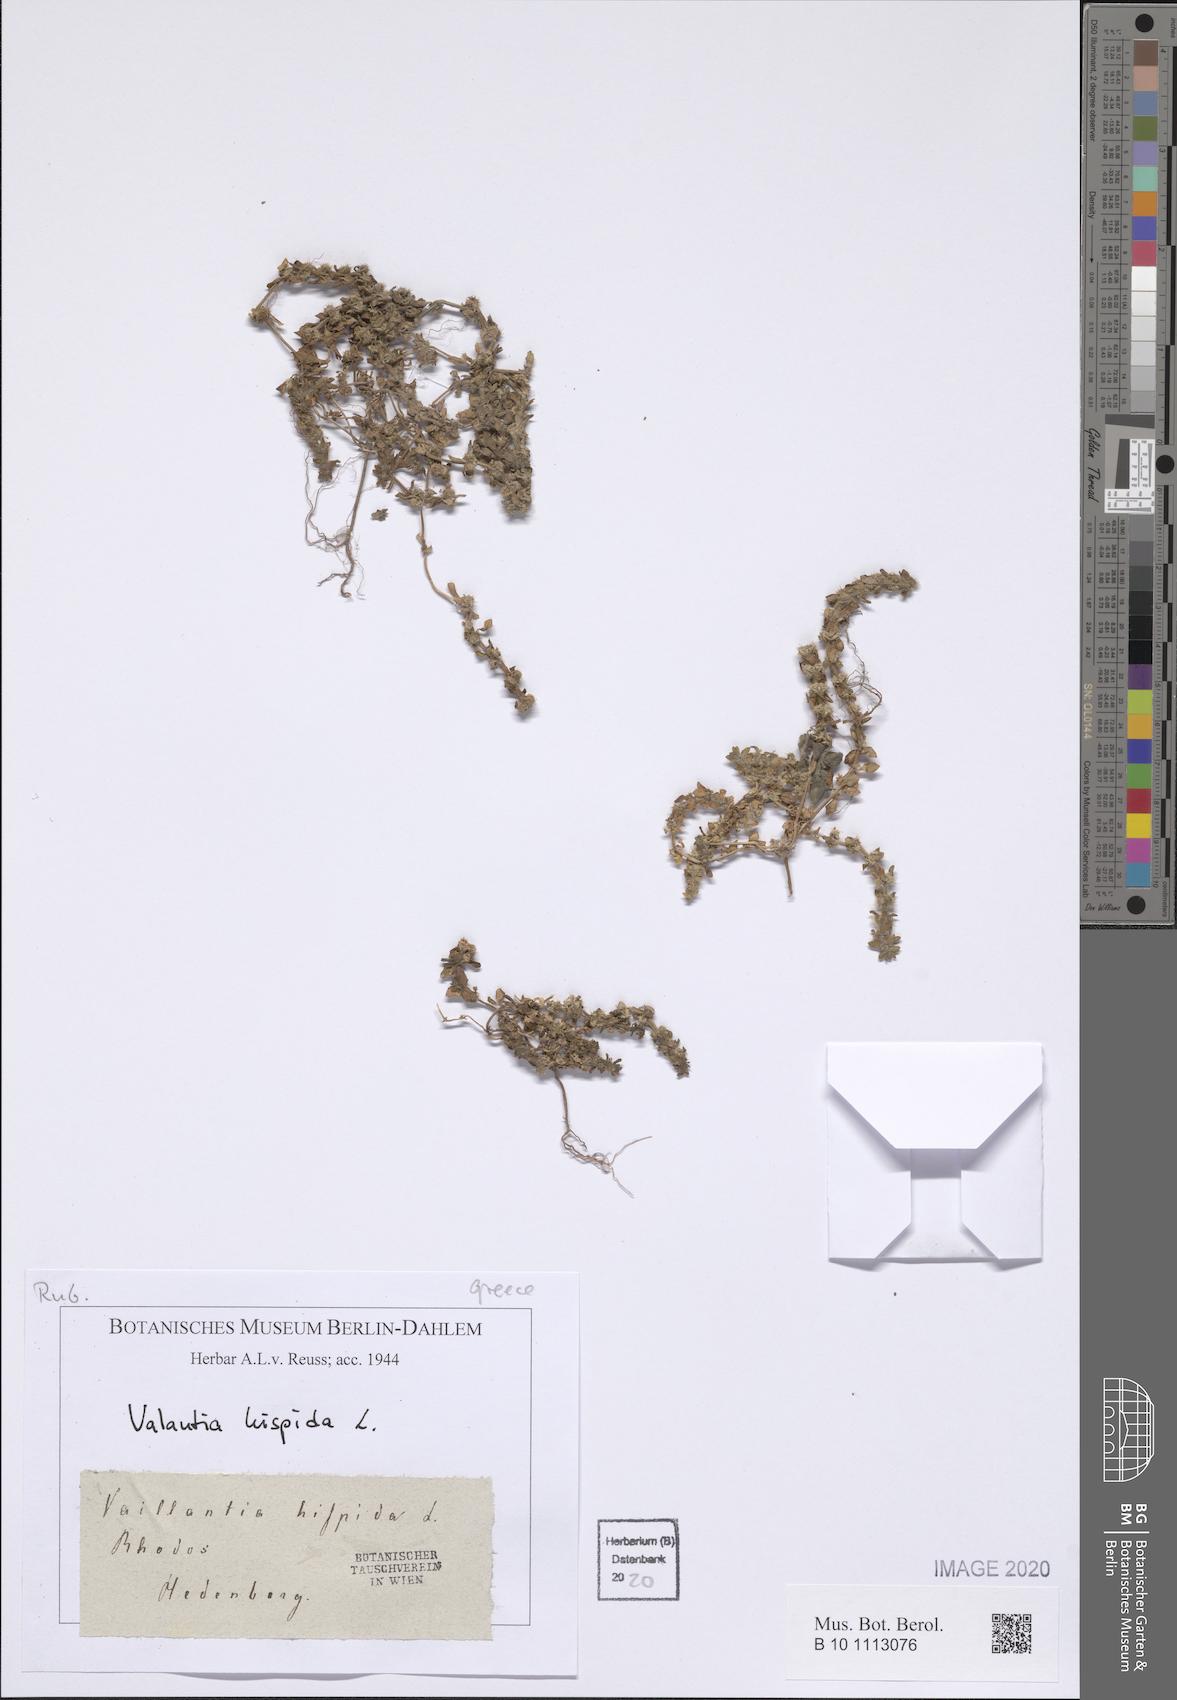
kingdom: Plantae
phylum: Tracheophyta
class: Magnoliopsida
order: Gentianales
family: Rubiaceae
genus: Valantia
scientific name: Valantia hispida
